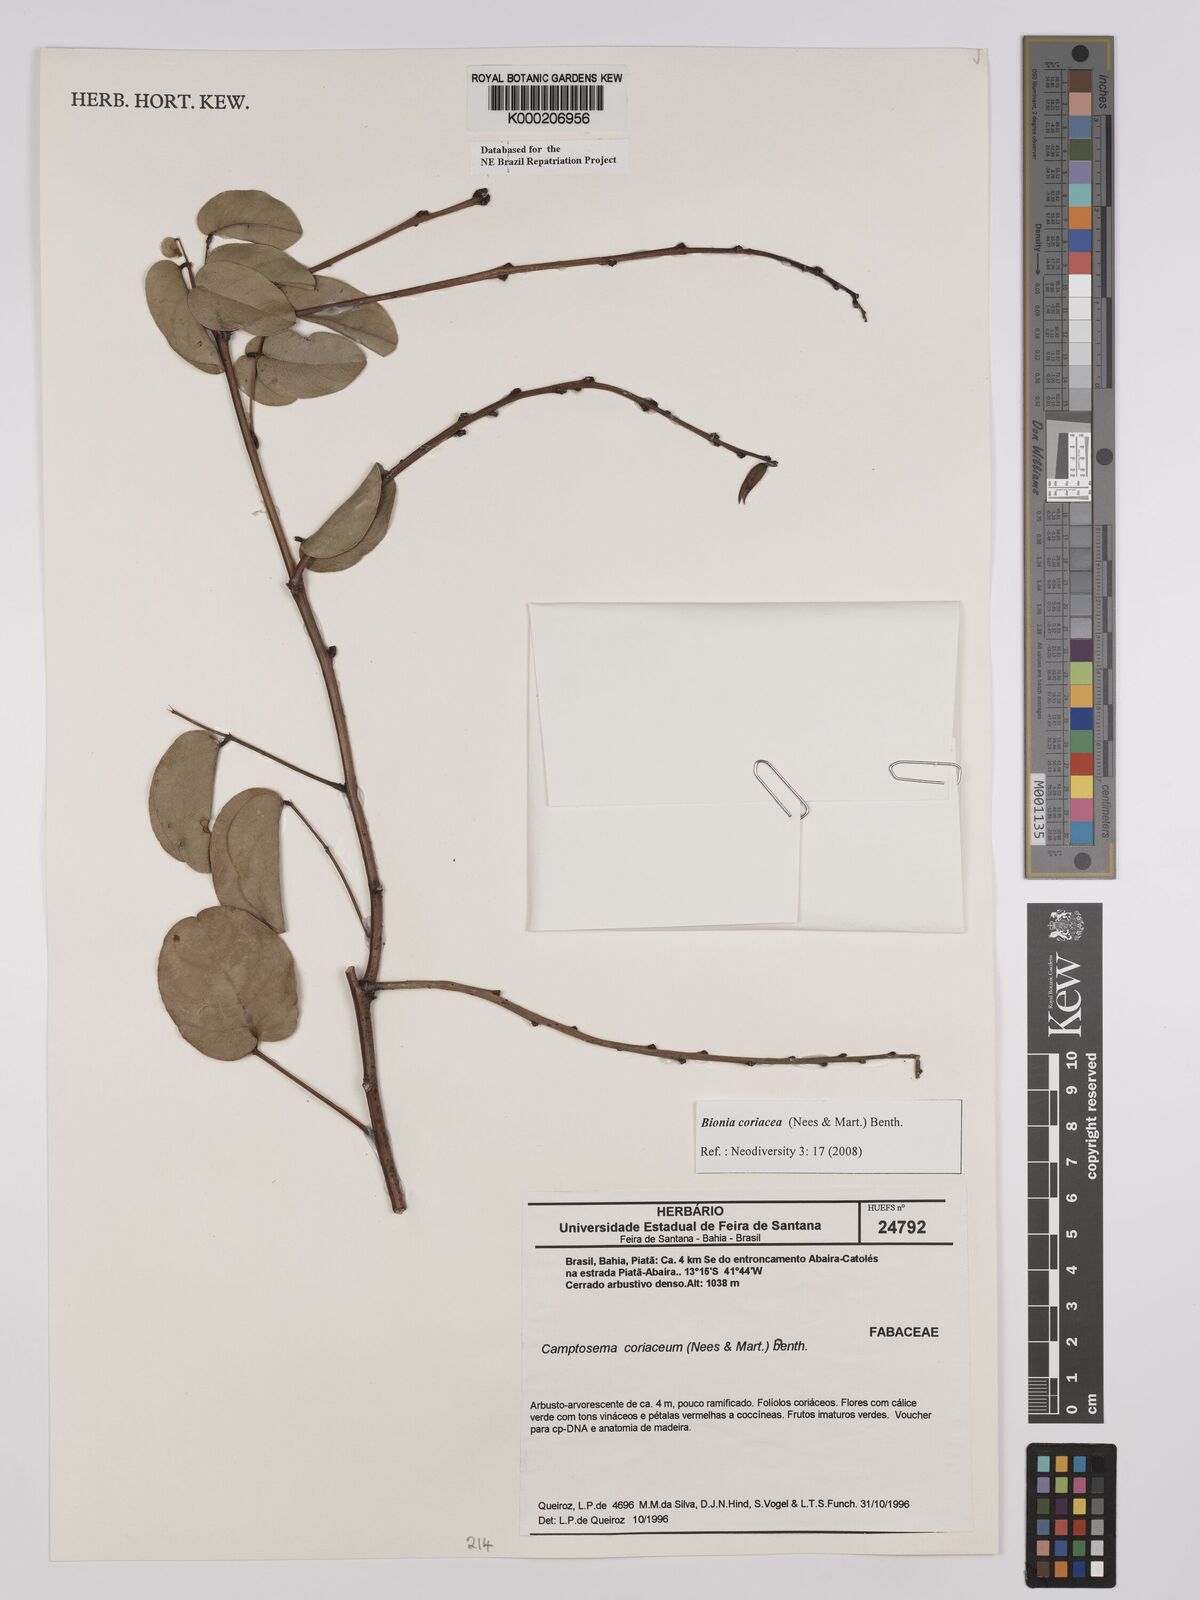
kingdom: Plantae
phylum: Tracheophyta
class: Magnoliopsida
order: Fabales
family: Fabaceae
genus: Camptosema
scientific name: Camptosema coriaceum
